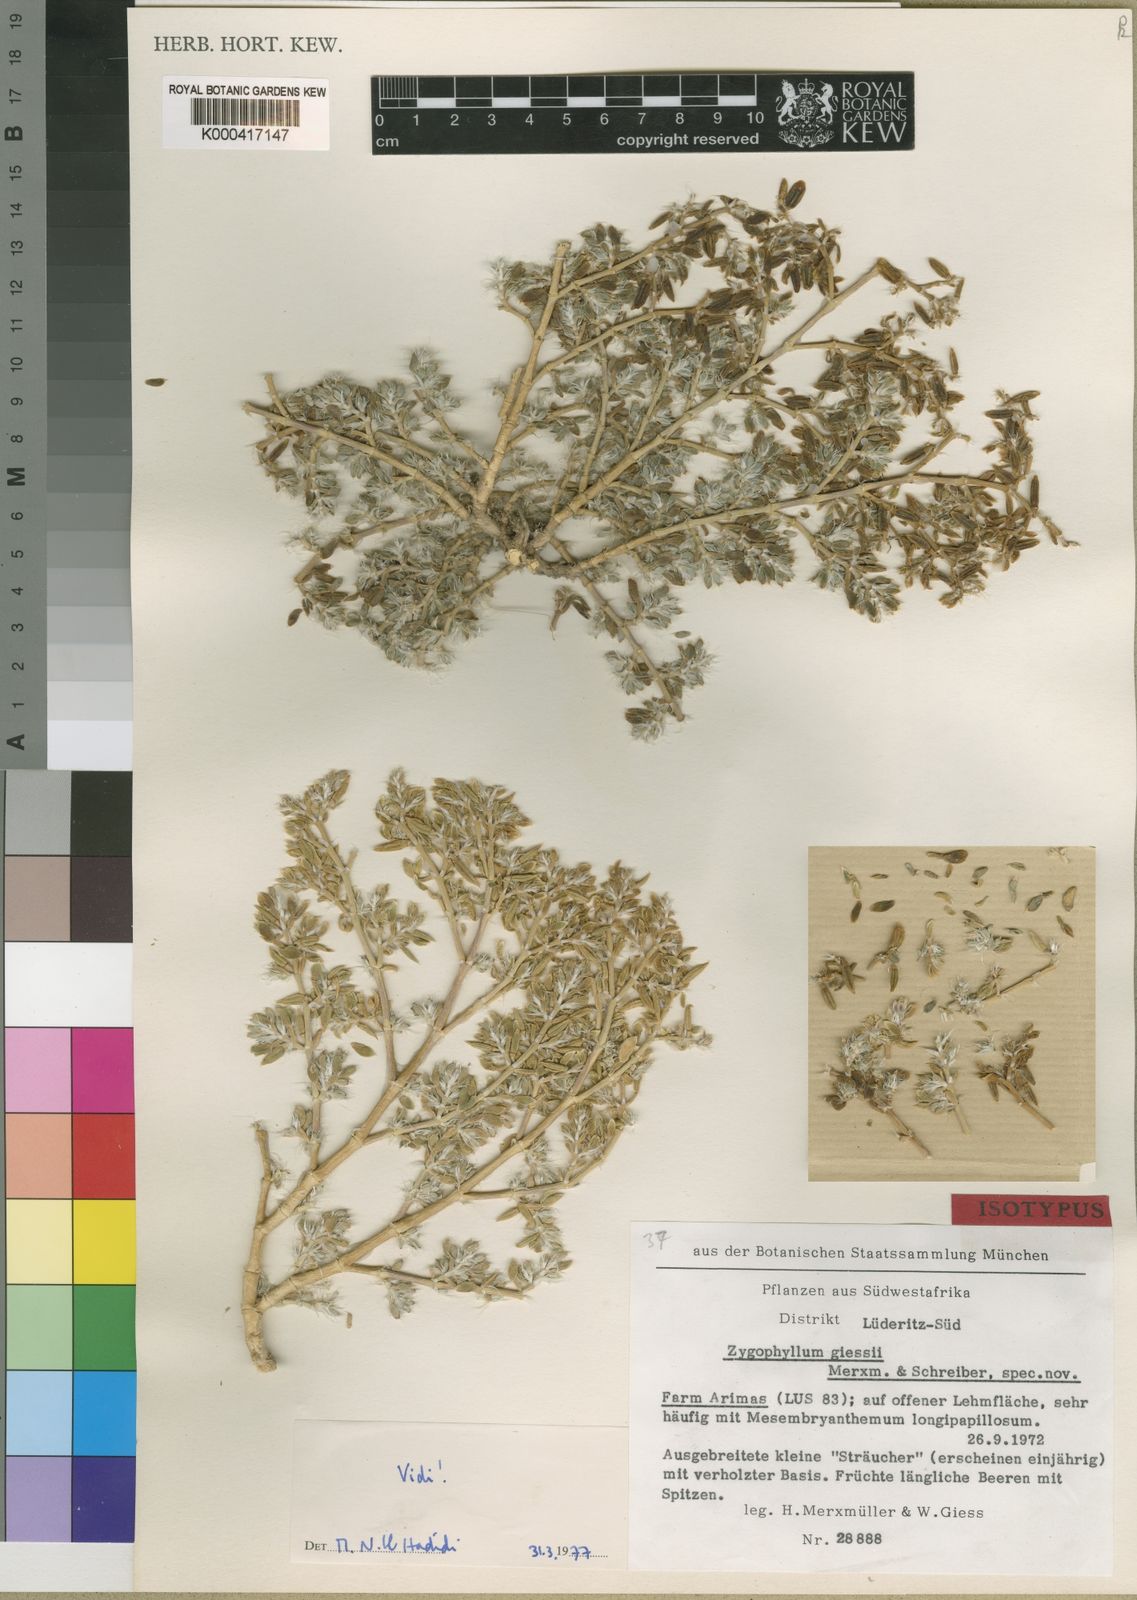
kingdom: Plantae
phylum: Tracheophyta
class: Magnoliopsida
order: Zygophyllales
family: Zygophyllaceae
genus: Tetraena
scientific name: Tetraena giessii
